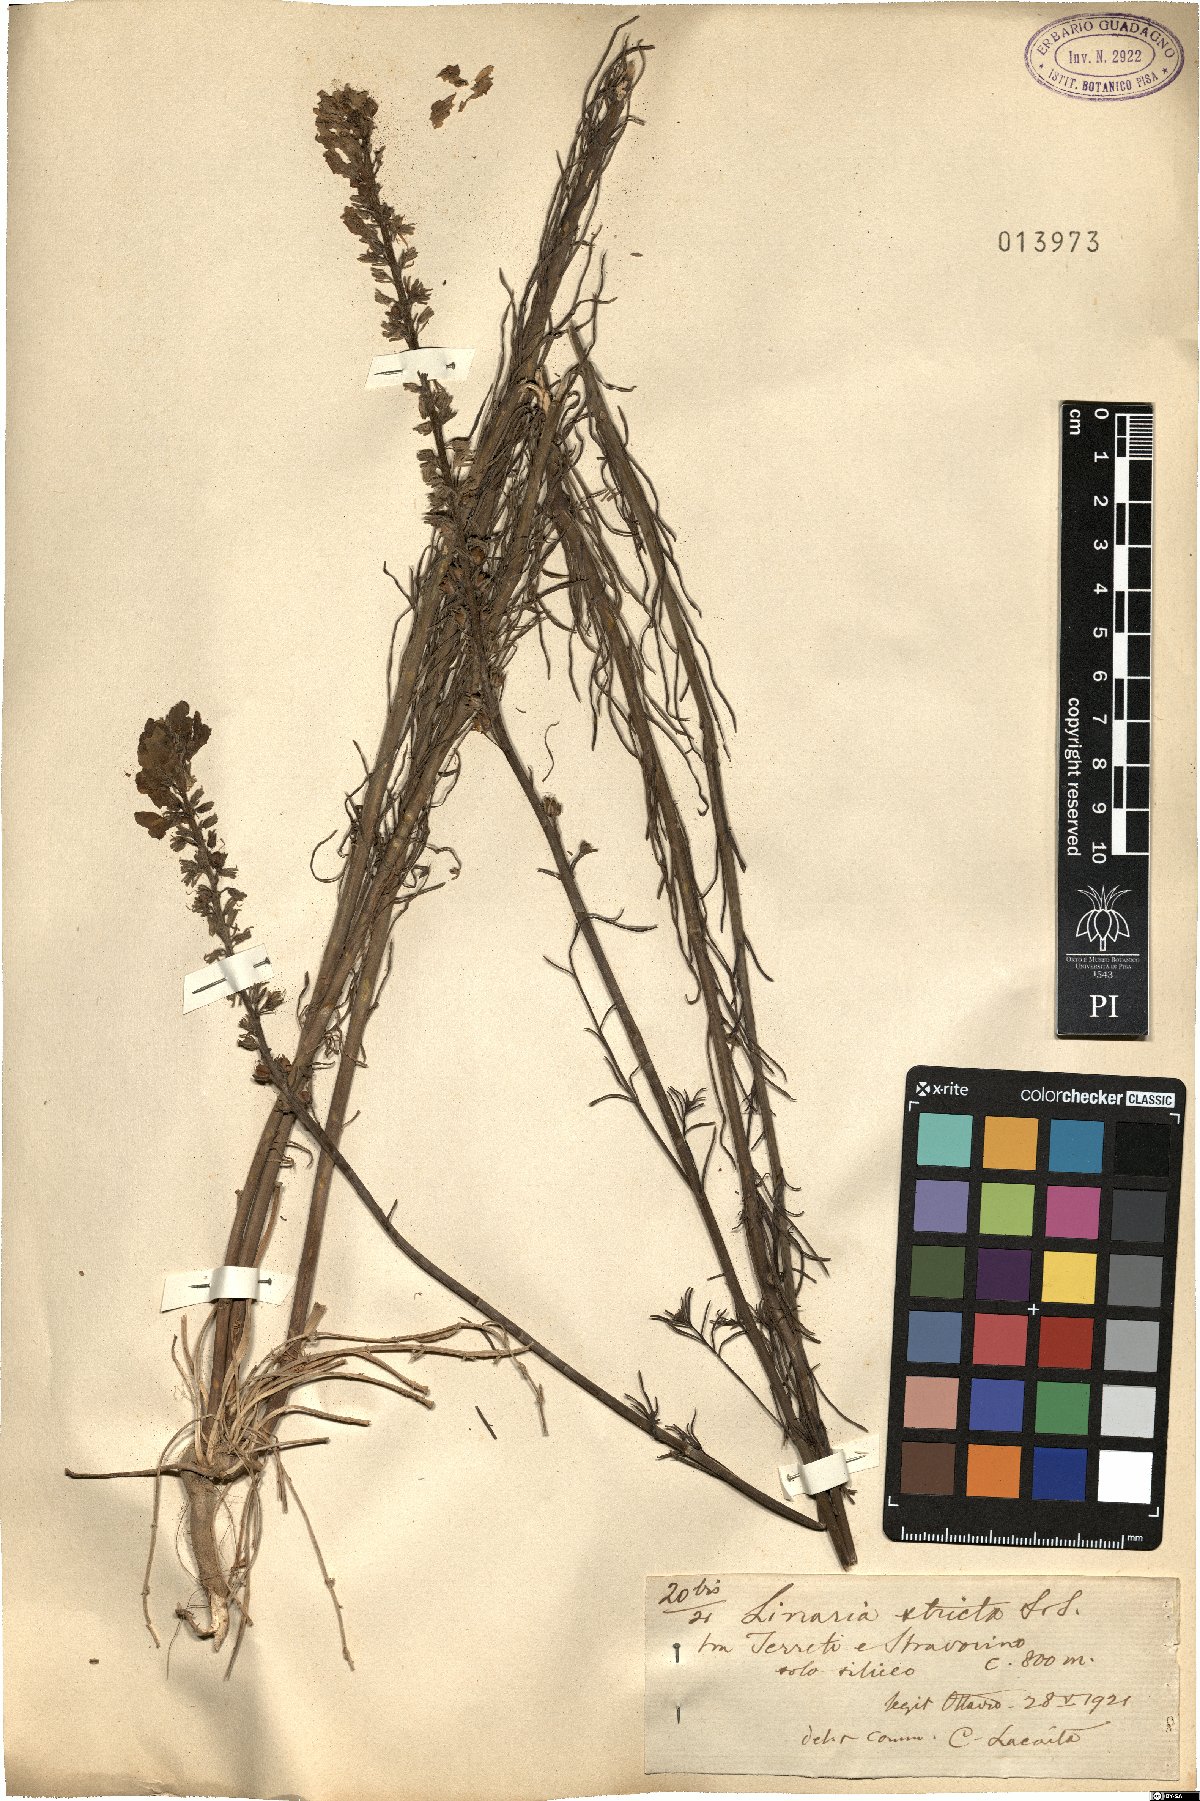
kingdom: Plantae
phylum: Tracheophyta
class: Magnoliopsida
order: Lamiales
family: Plantaginaceae
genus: Linaria
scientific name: Linaria repens
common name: Pale toadflax
